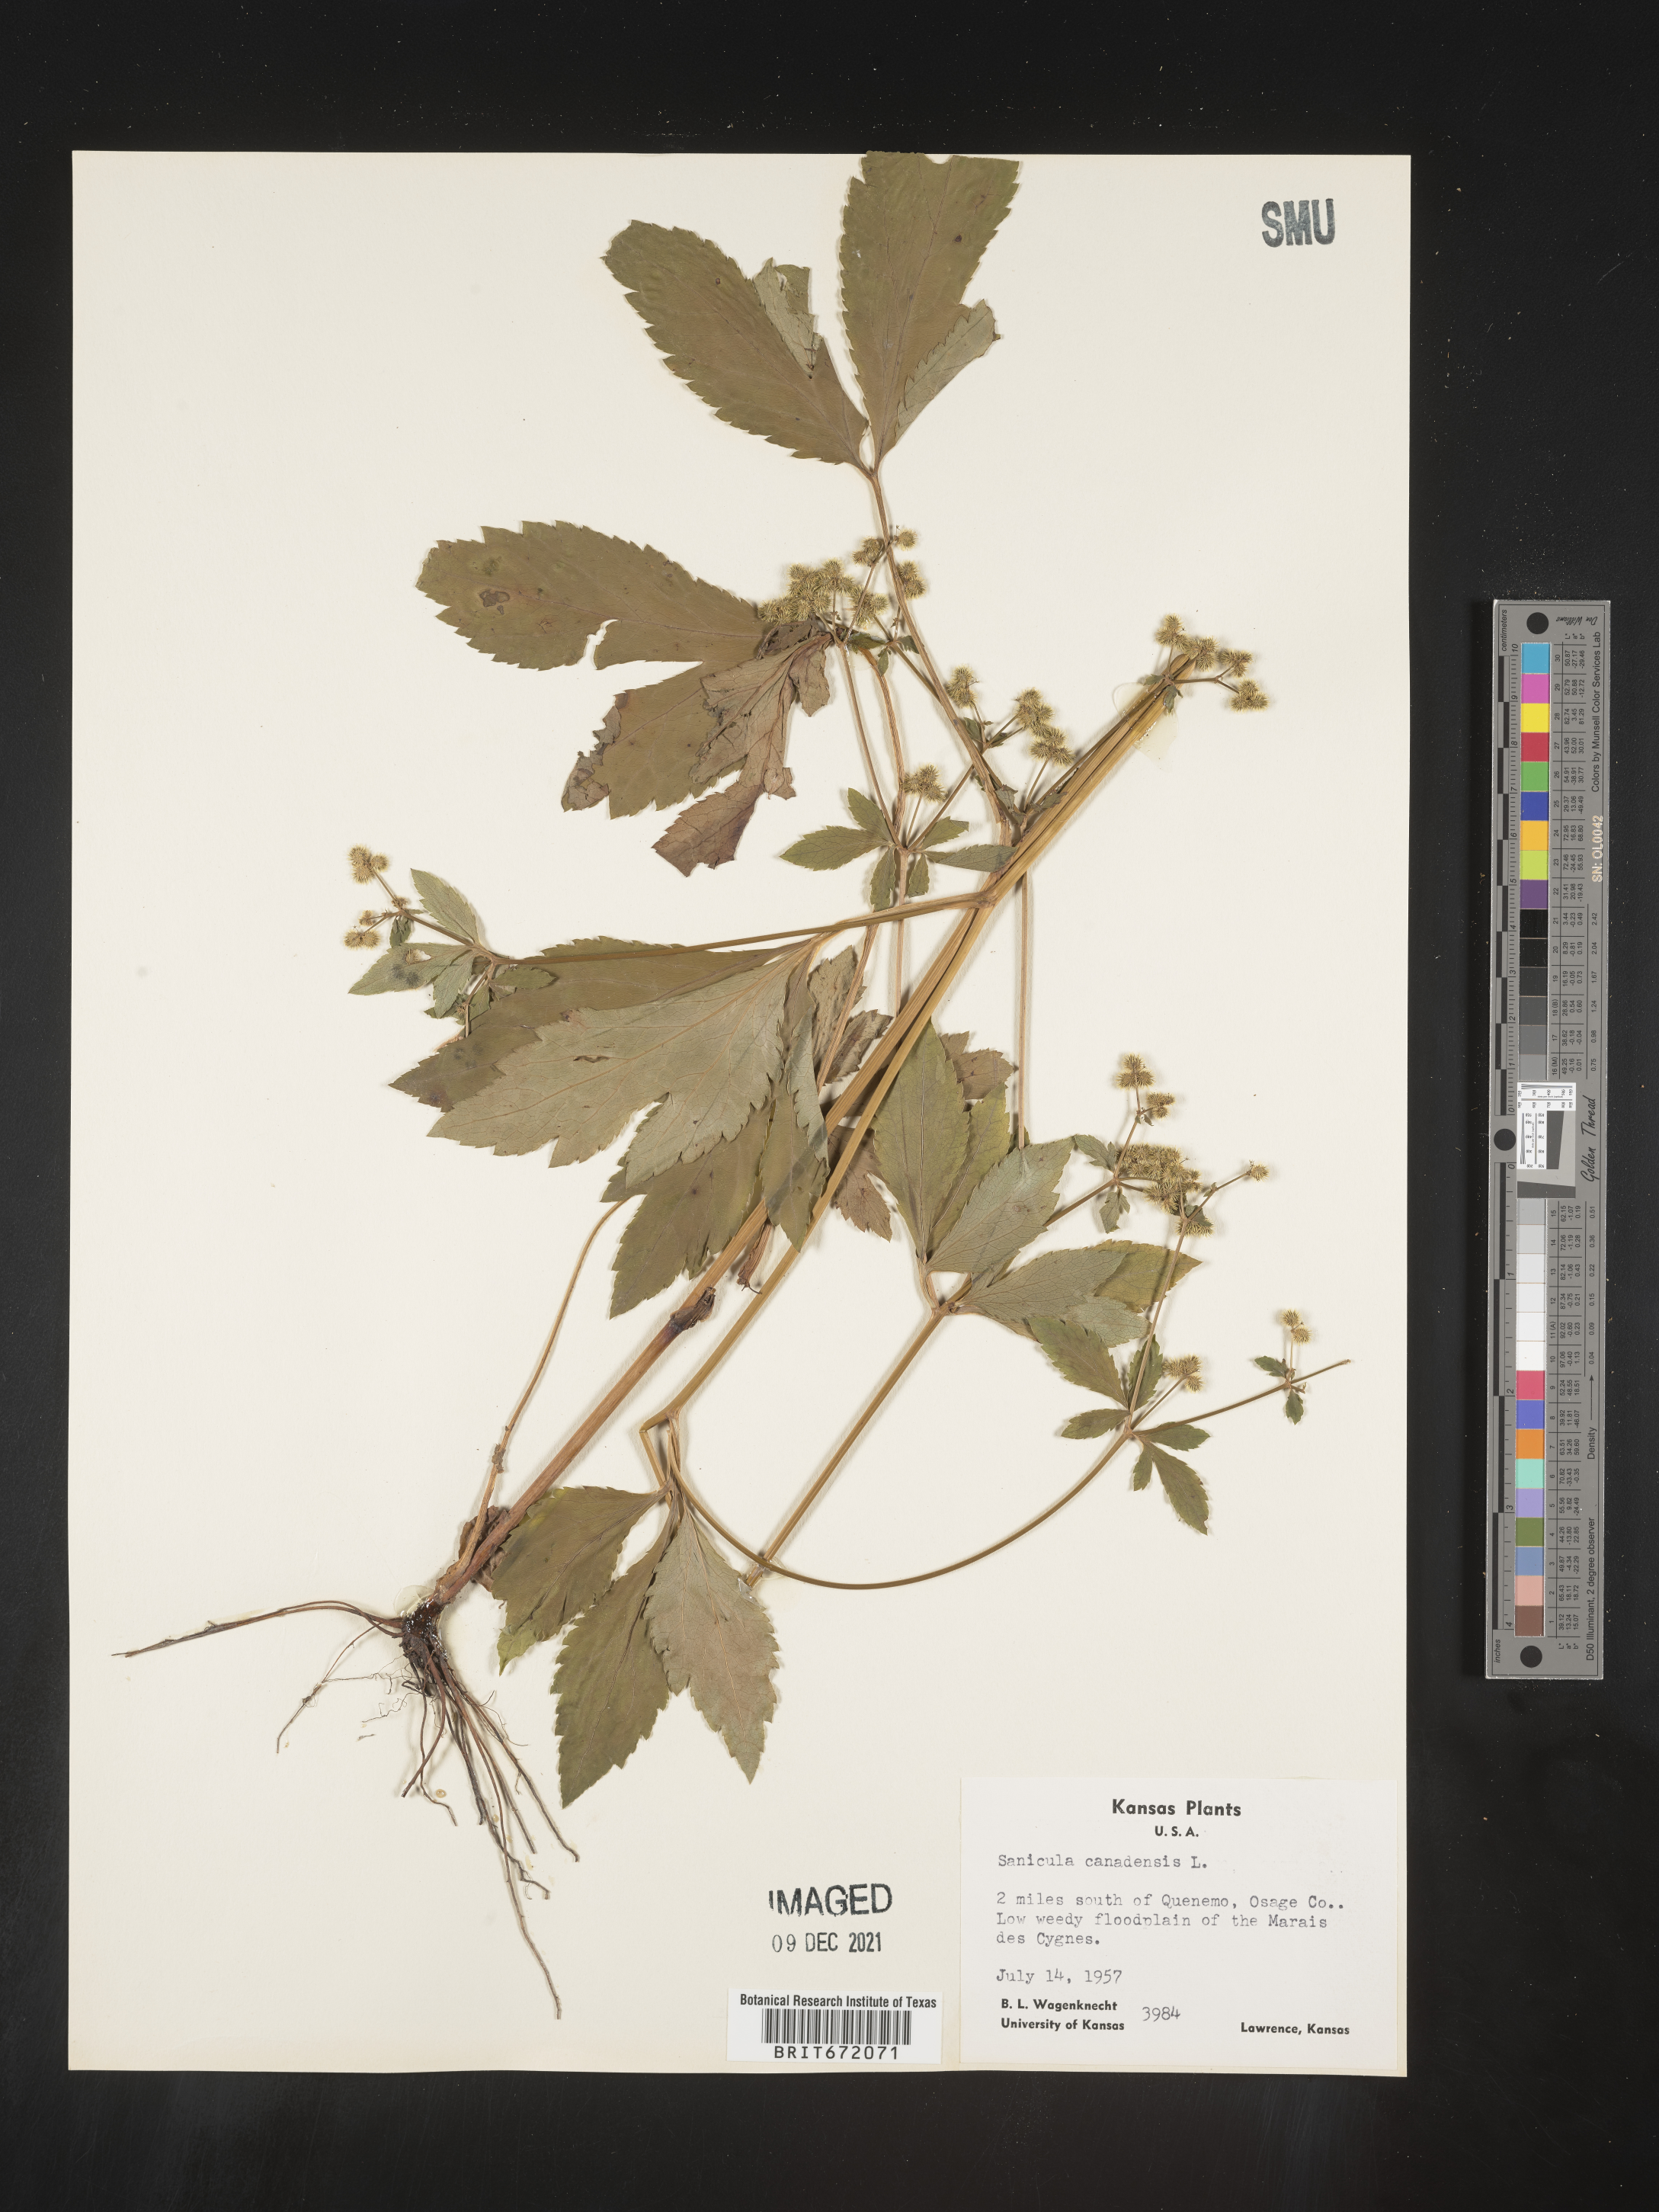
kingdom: Plantae
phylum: Tracheophyta
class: Magnoliopsida
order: Apiales
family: Apiaceae
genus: Sanicula
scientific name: Sanicula canadensis
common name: Canada sanicle
